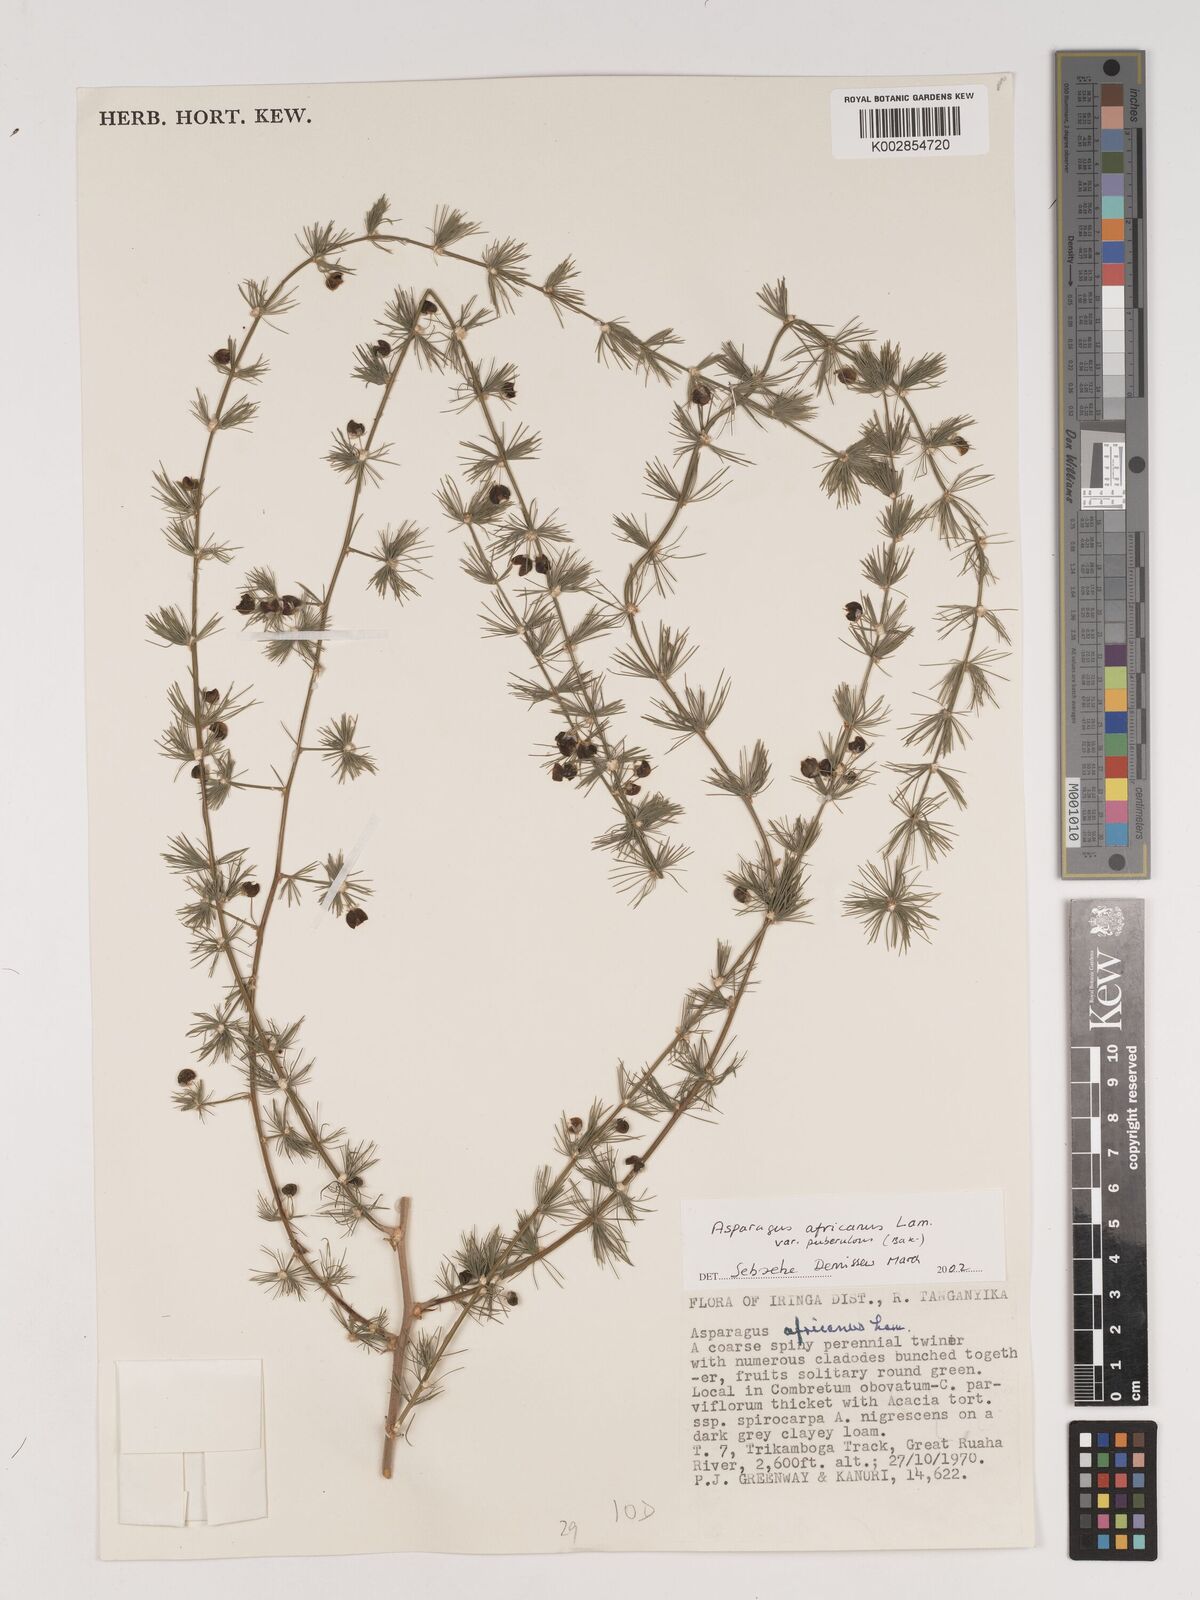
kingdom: Plantae
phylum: Tracheophyta
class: Liliopsida
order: Asparagales
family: Asparagaceae
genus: Asparagus
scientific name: Asparagus africanus
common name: Asparagus-fern
